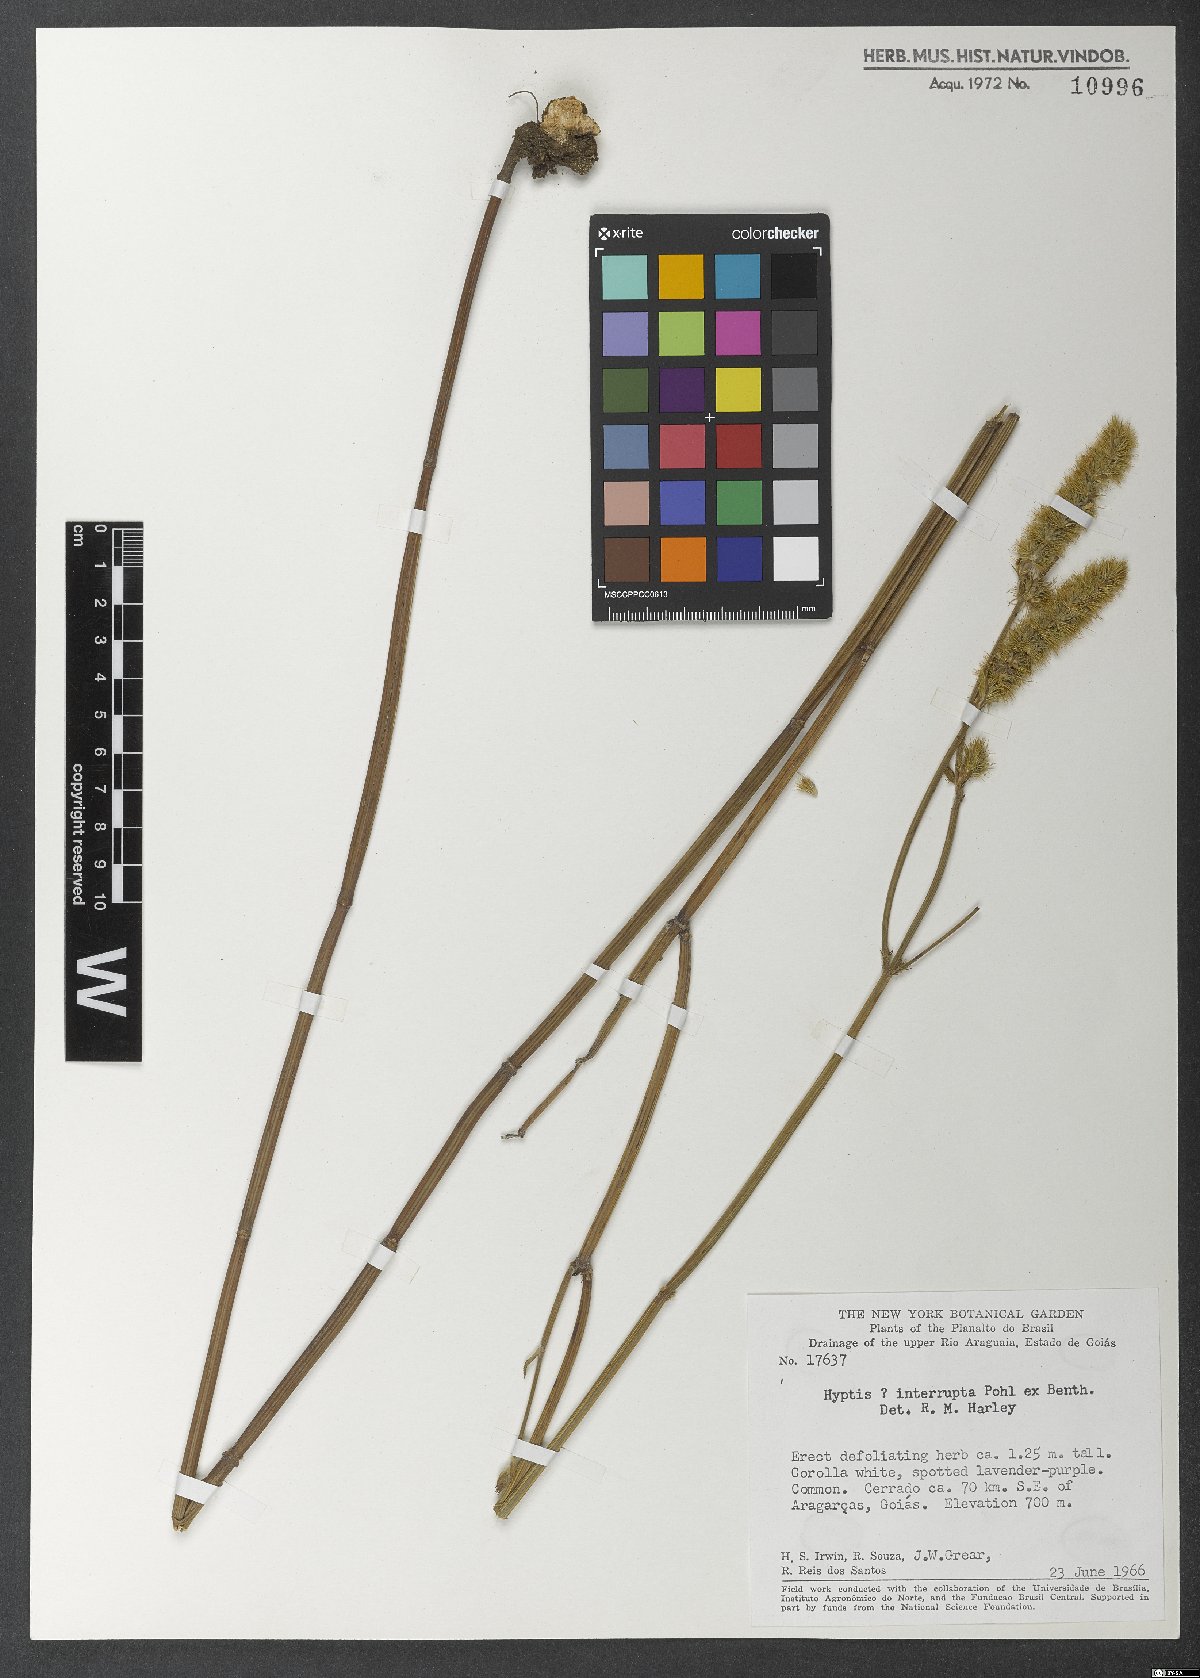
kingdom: Plantae
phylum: Tracheophyta
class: Magnoliopsida
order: Lamiales
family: Lamiaceae
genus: Gymneia
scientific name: Gymneia interrupta
